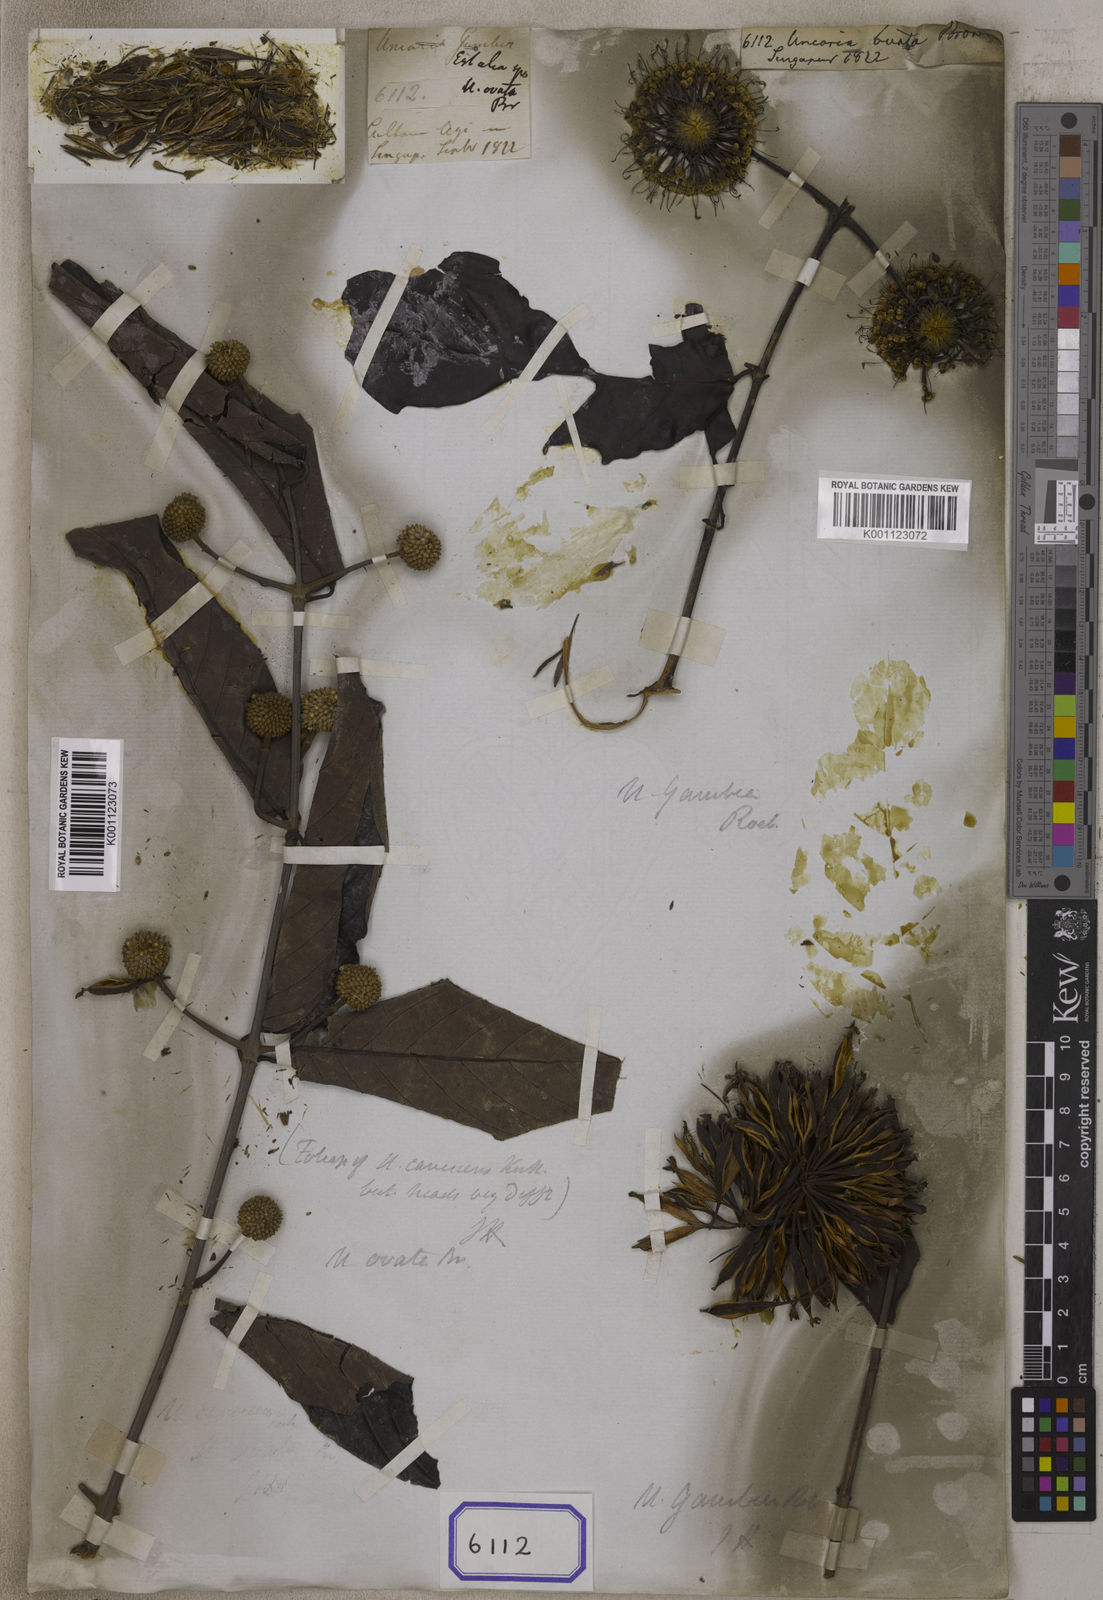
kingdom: Plantae
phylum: Tracheophyta
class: Magnoliopsida
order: Gentianales
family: Rubiaceae
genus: Uncaria
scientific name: Uncaria
